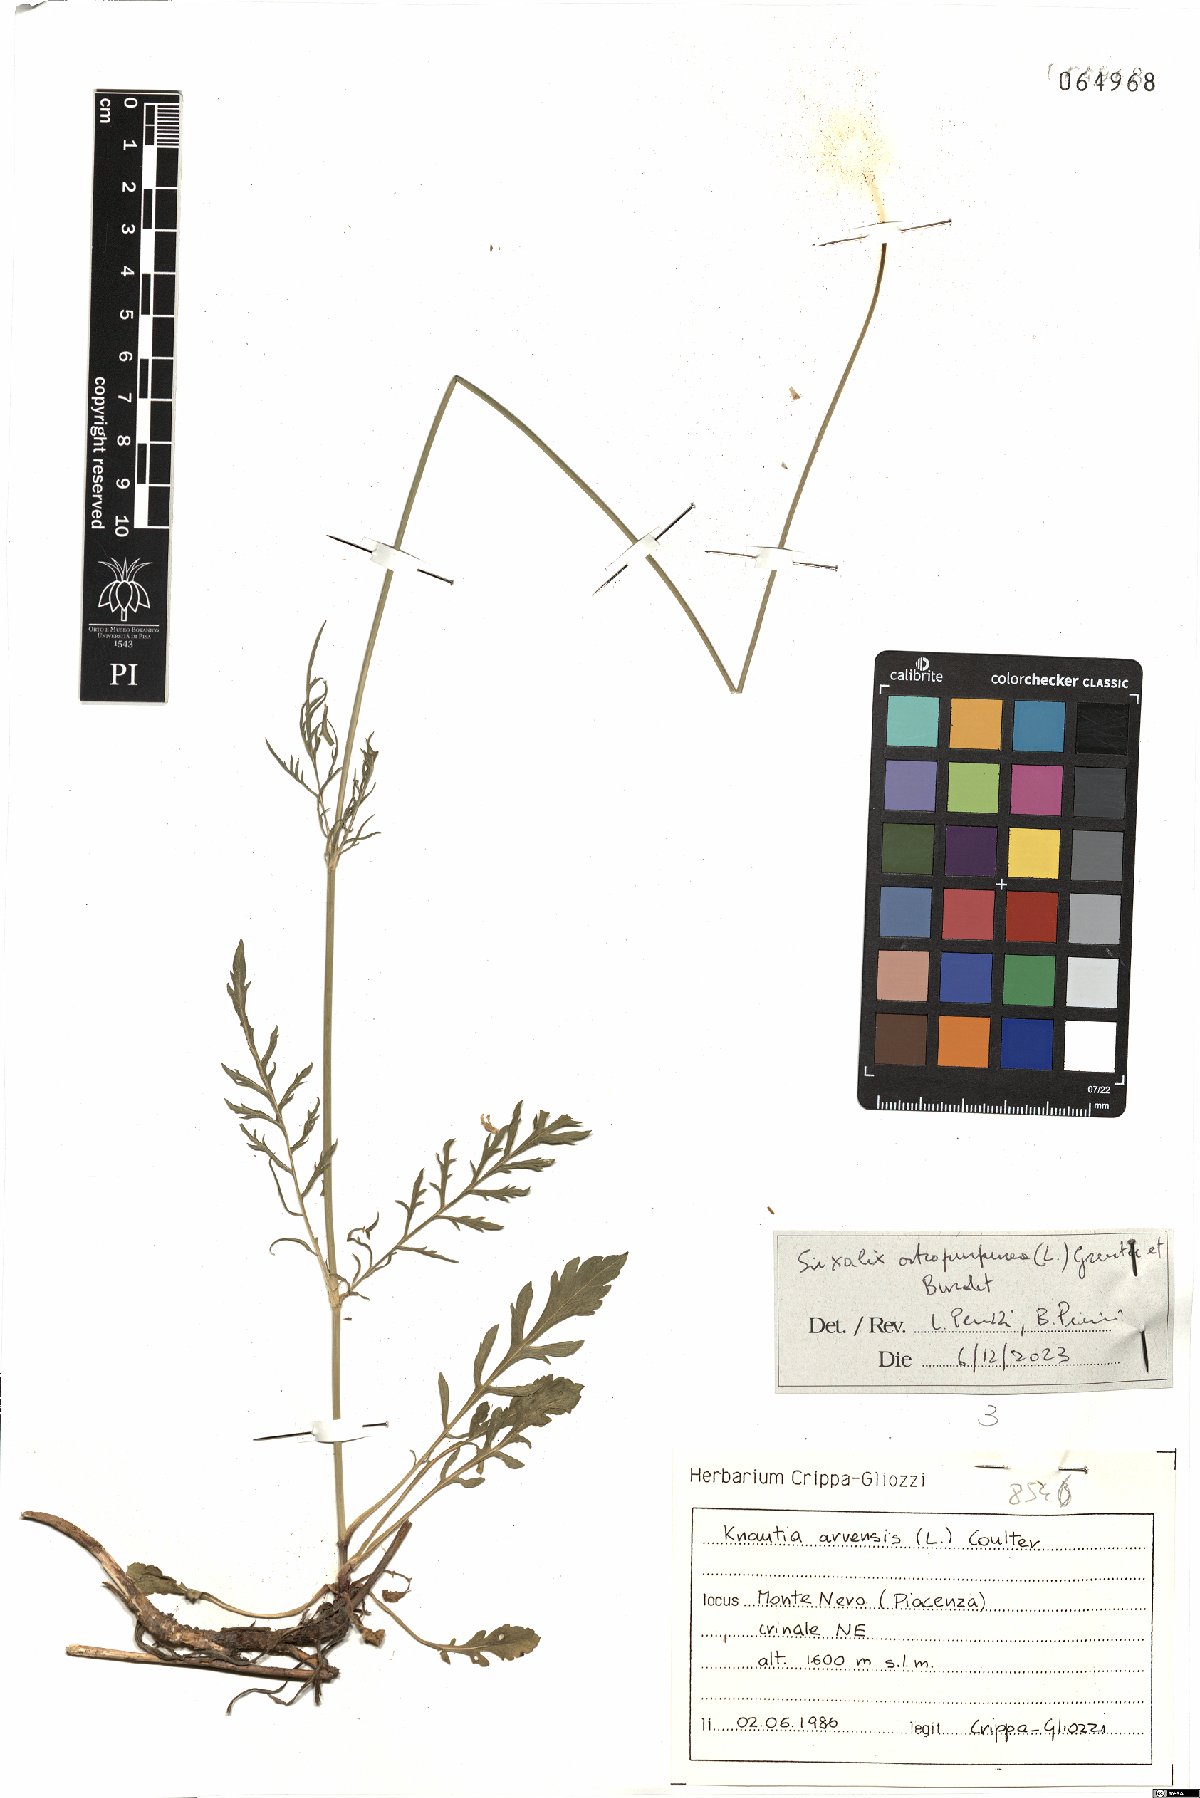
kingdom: Plantae
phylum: Tracheophyta
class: Magnoliopsida
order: Dipsacales
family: Caprifoliaceae
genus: Sixalix
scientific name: Sixalix atropurpurea
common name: Sweet scabious
